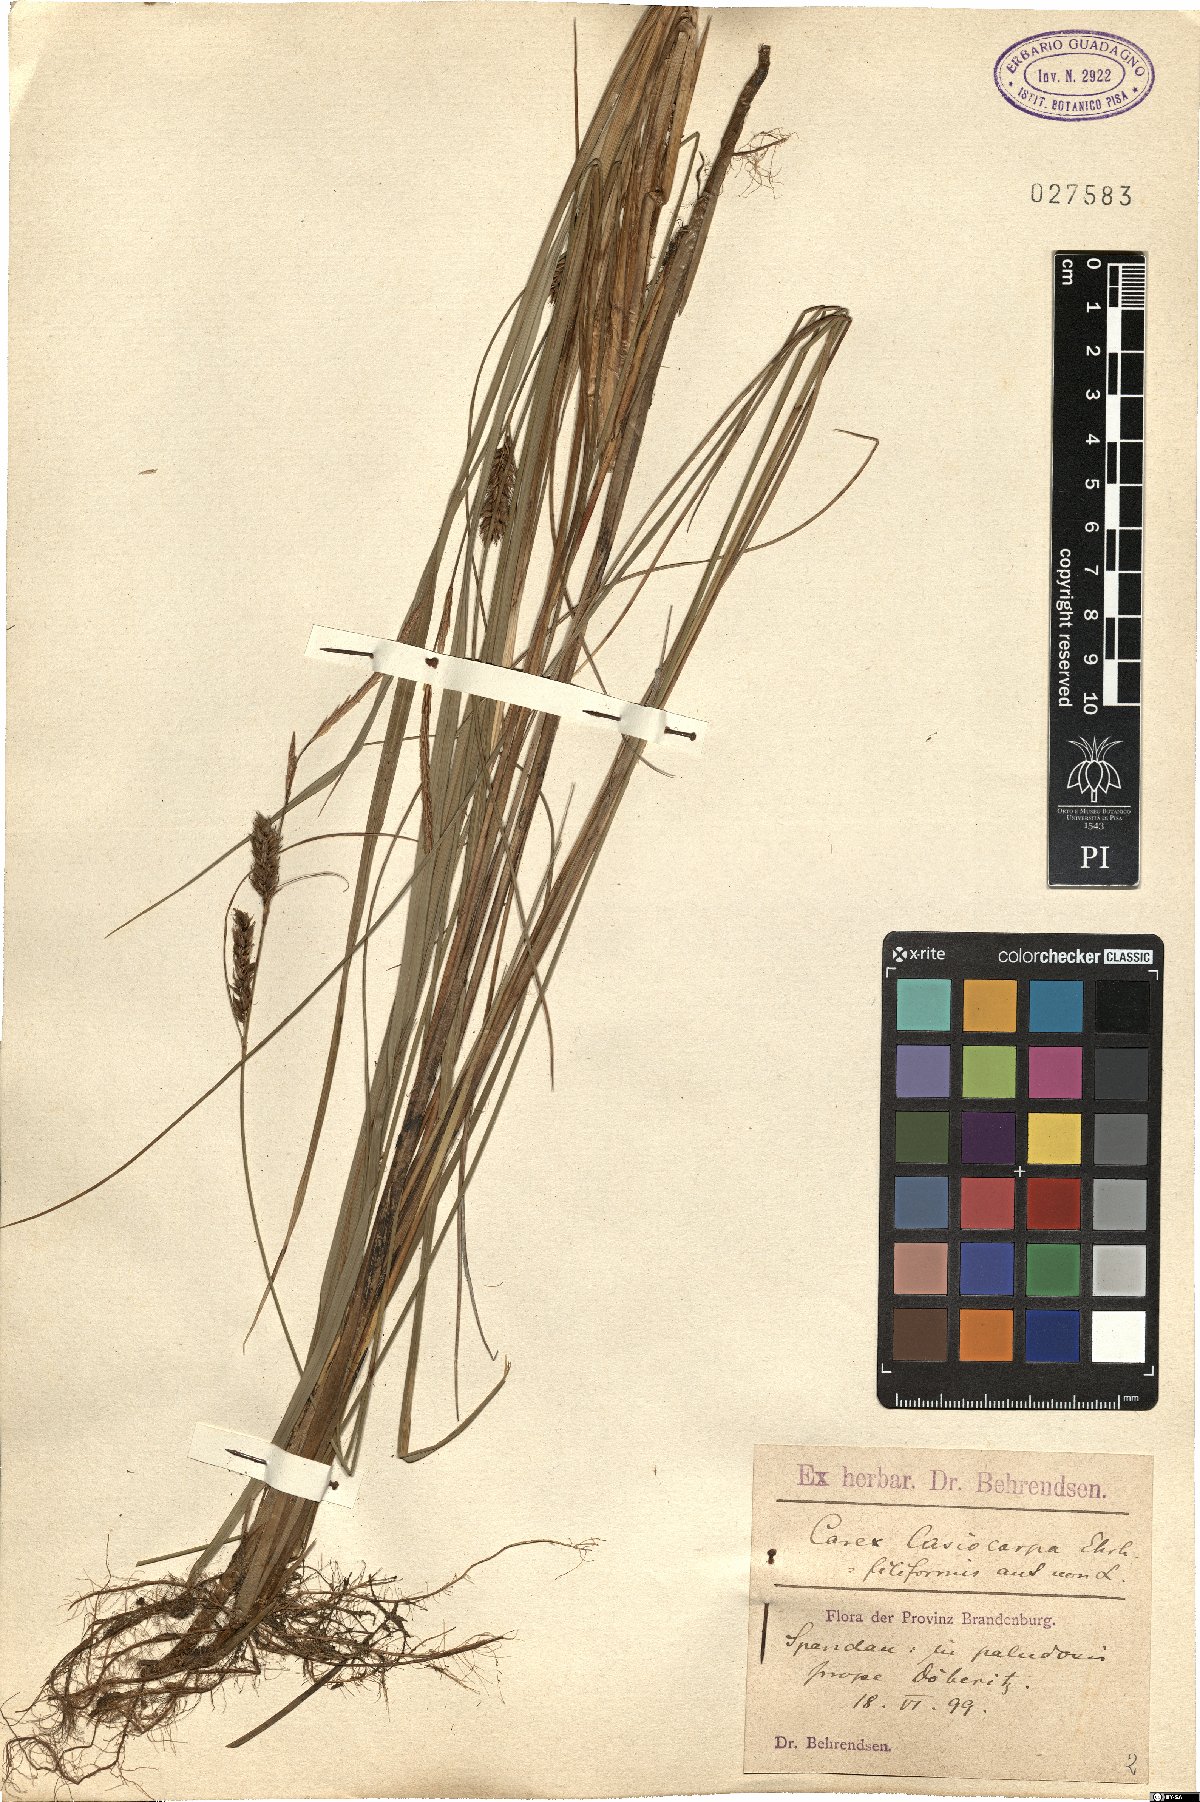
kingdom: Plantae
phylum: Tracheophyta
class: Liliopsida
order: Poales
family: Cyperaceae
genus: Carex
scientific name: Carex lasiocarpa
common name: Slender sedge
